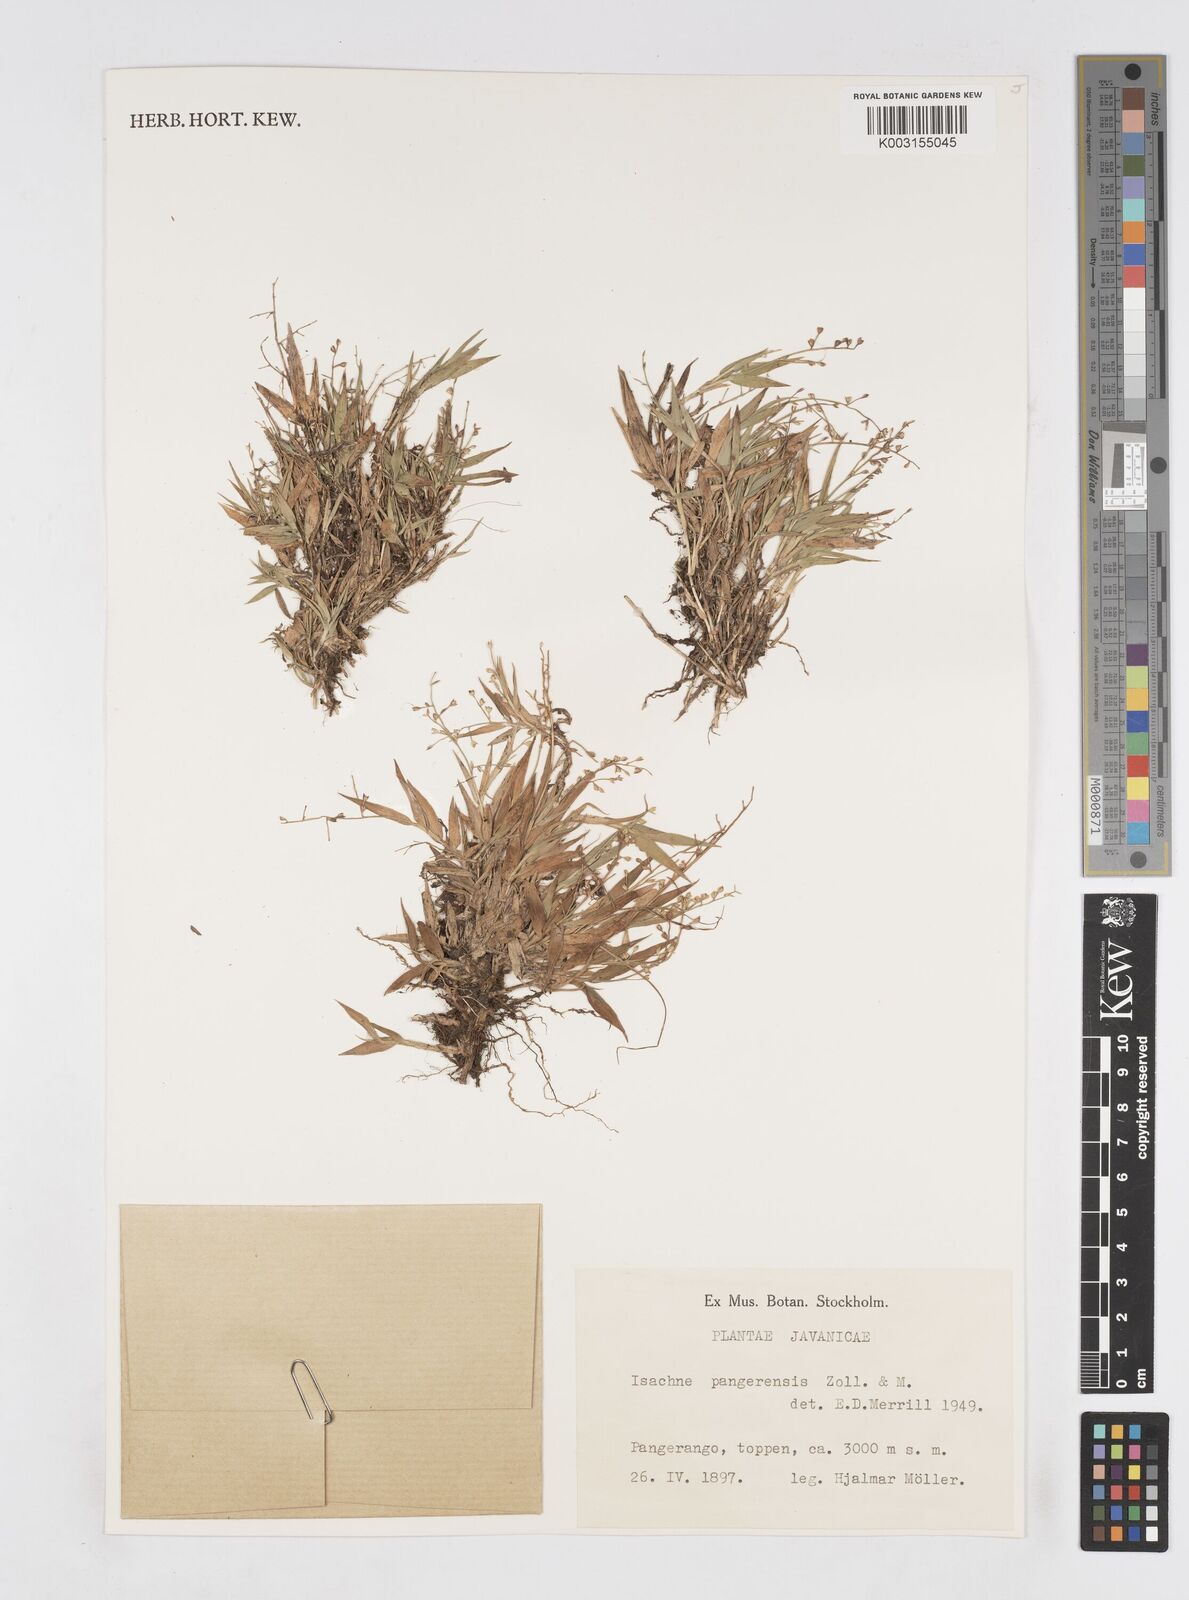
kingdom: Plantae
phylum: Tracheophyta
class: Liliopsida
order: Poales
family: Poaceae
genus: Isachne
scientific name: Isachne pangerangensis
